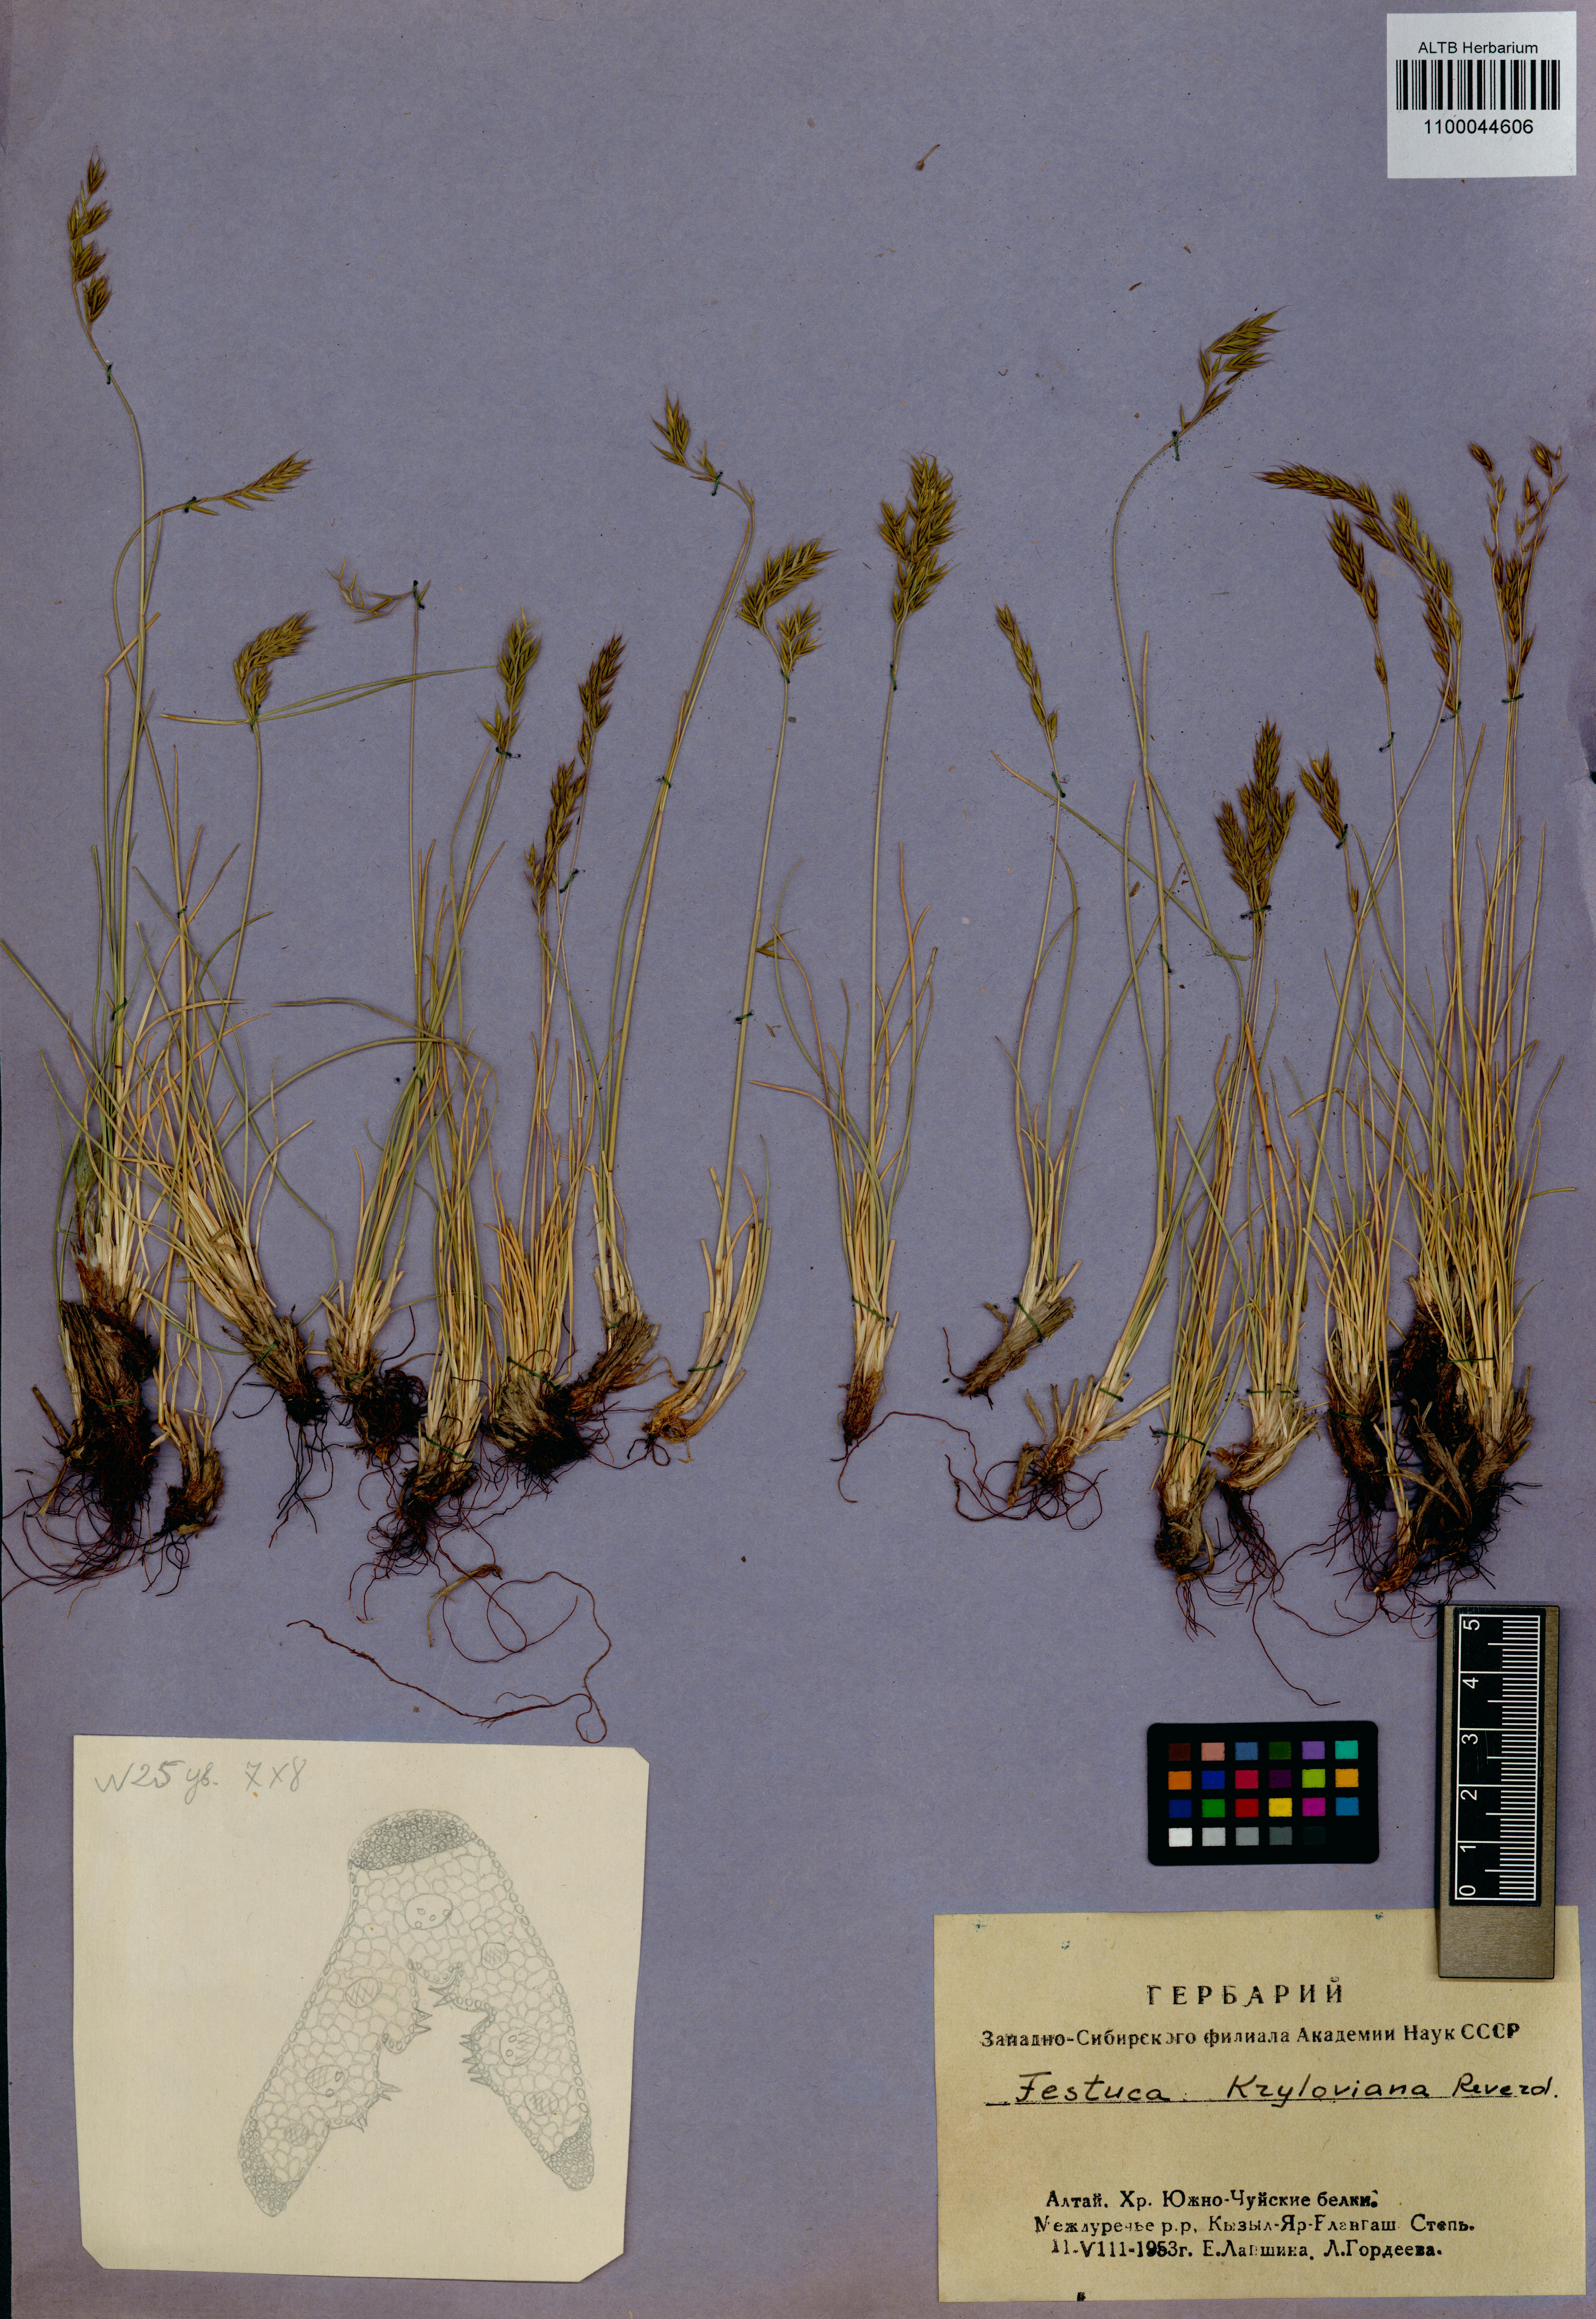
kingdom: Plantae
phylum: Tracheophyta
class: Liliopsida
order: Poales
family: Poaceae
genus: Festuca
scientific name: Festuca kryloviana
